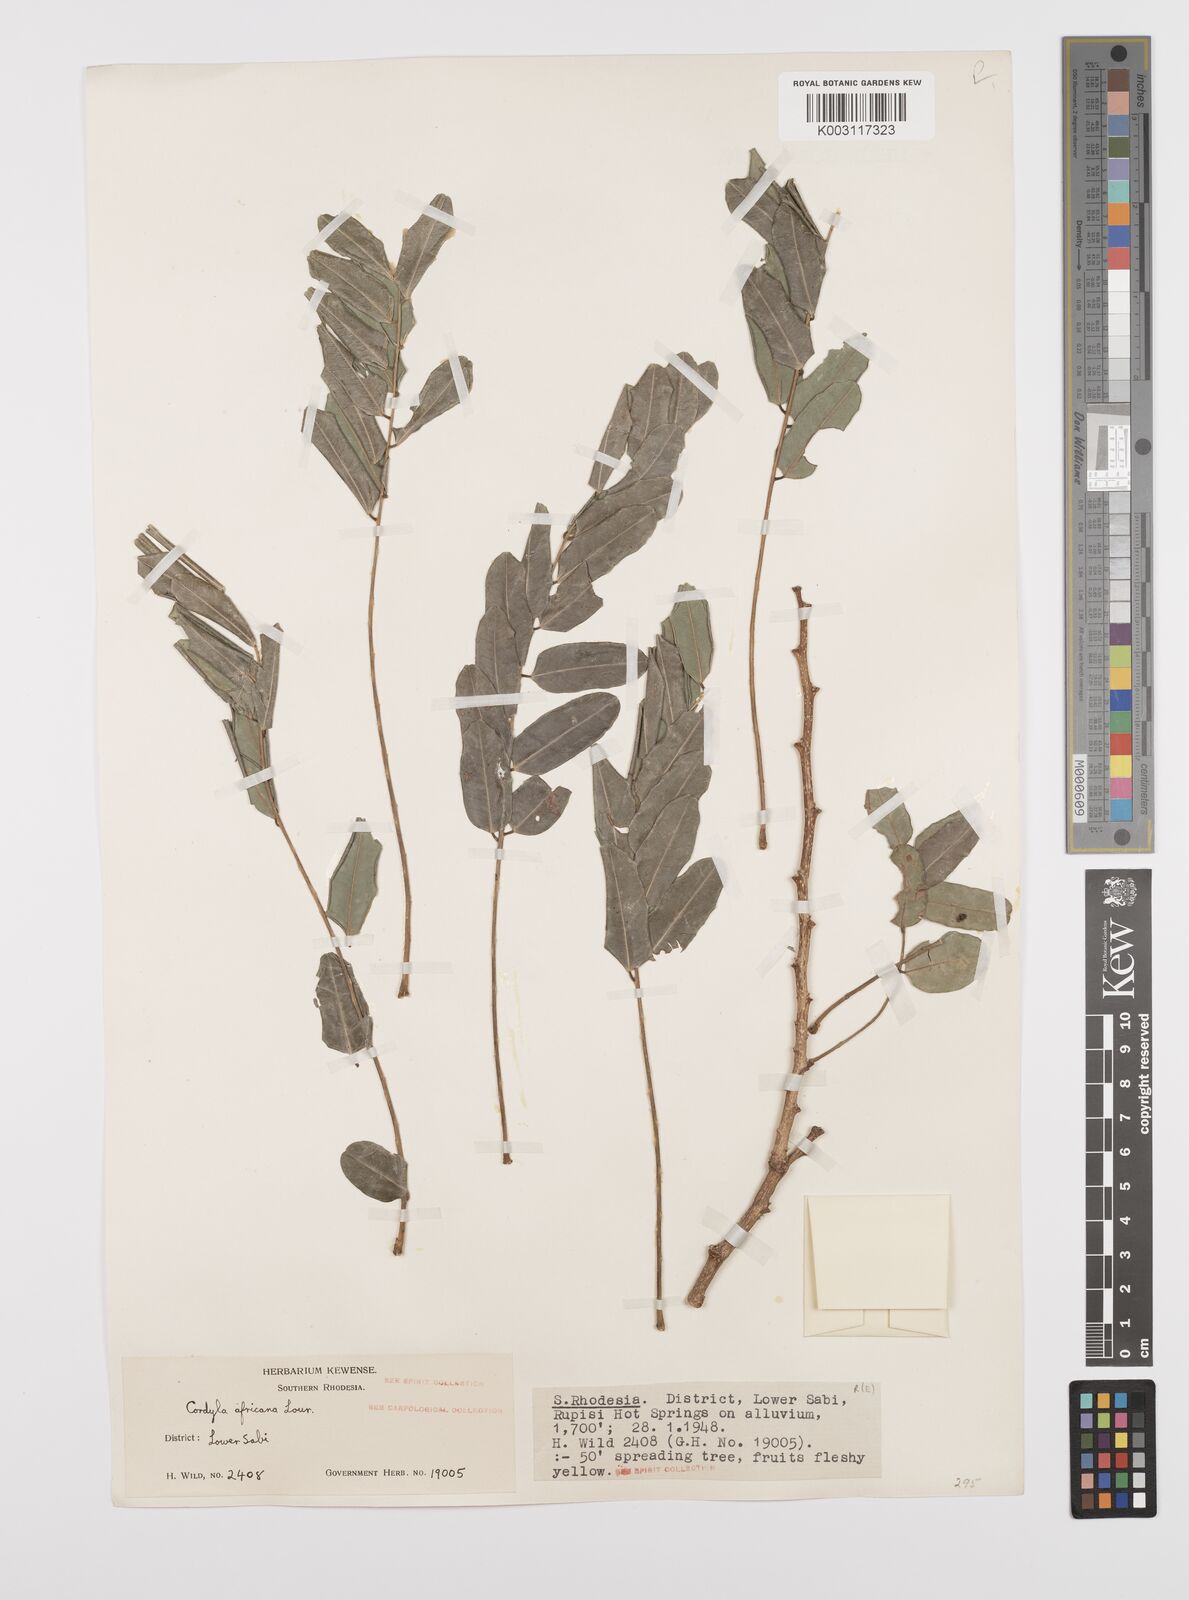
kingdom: Plantae
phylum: Tracheophyta
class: Magnoliopsida
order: Fabales
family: Fabaceae
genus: Cordyla
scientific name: Cordyla africana
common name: Wild mango
